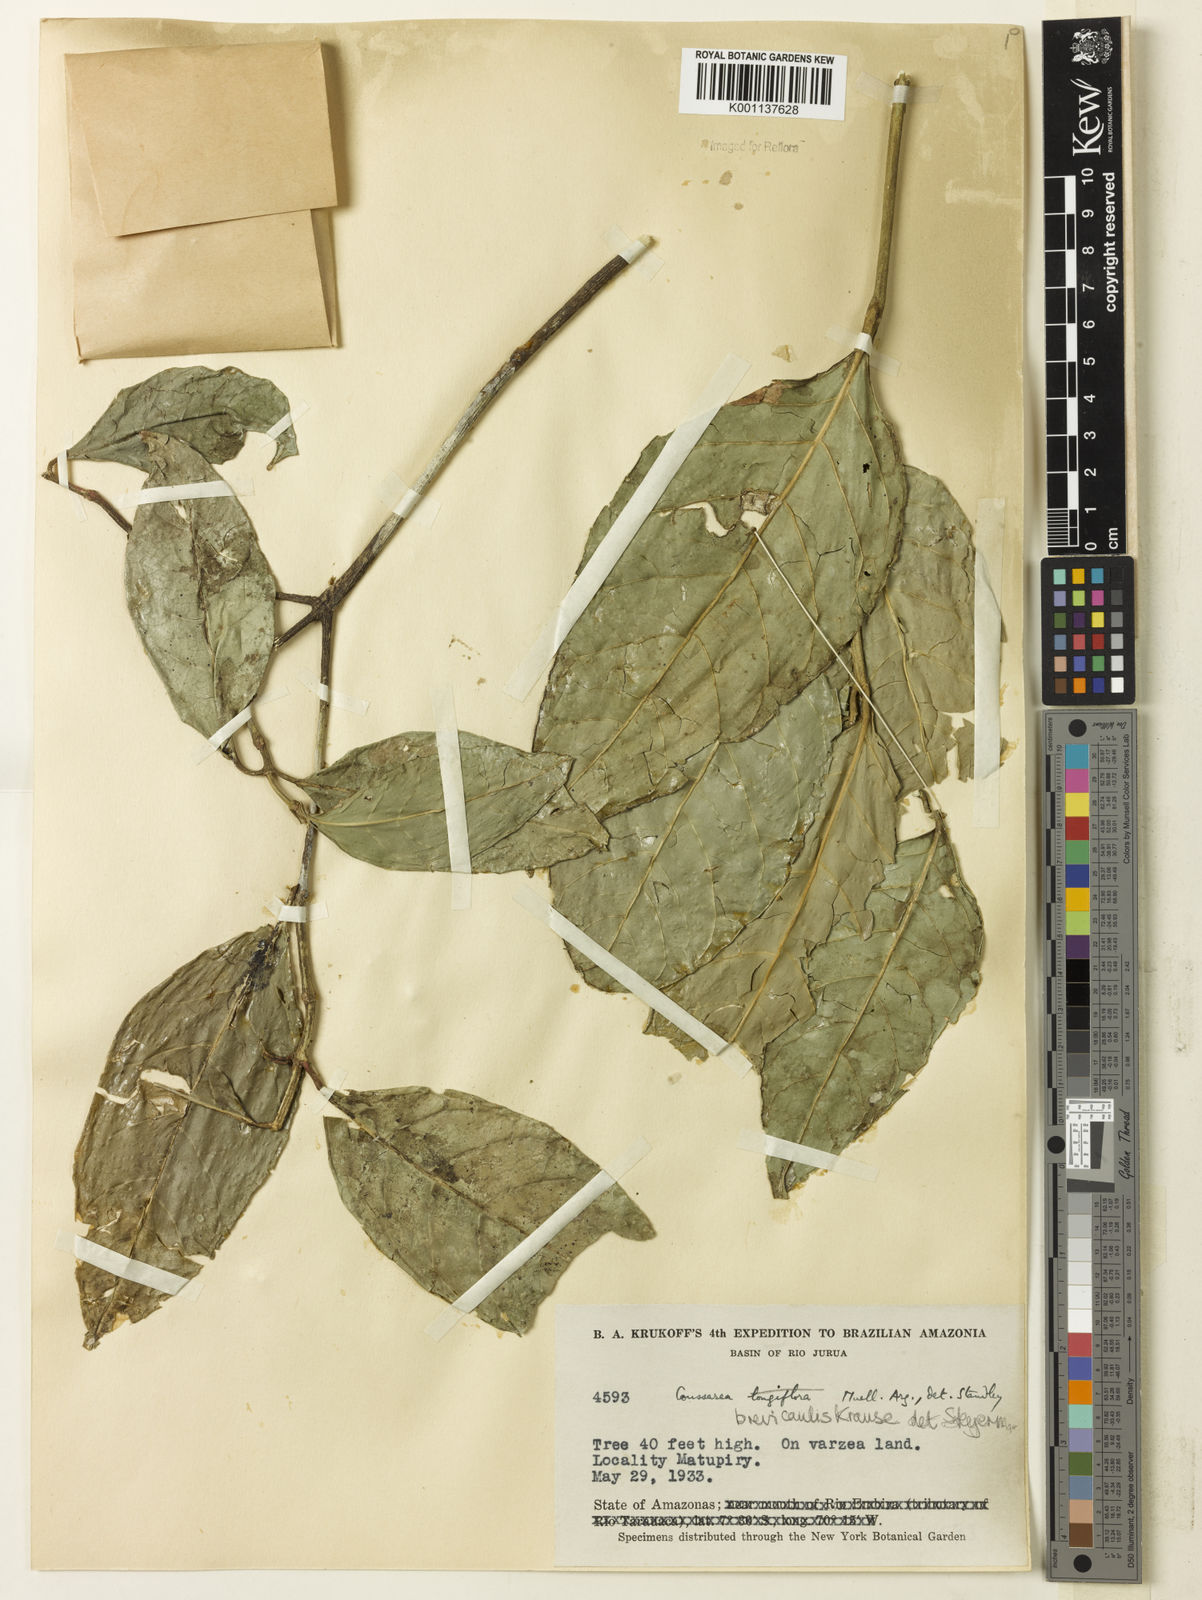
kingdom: Plantae
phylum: Tracheophyta
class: Magnoliopsida
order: Gentianales
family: Rubiaceae
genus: Coussarea
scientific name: Coussarea brevicaulis
